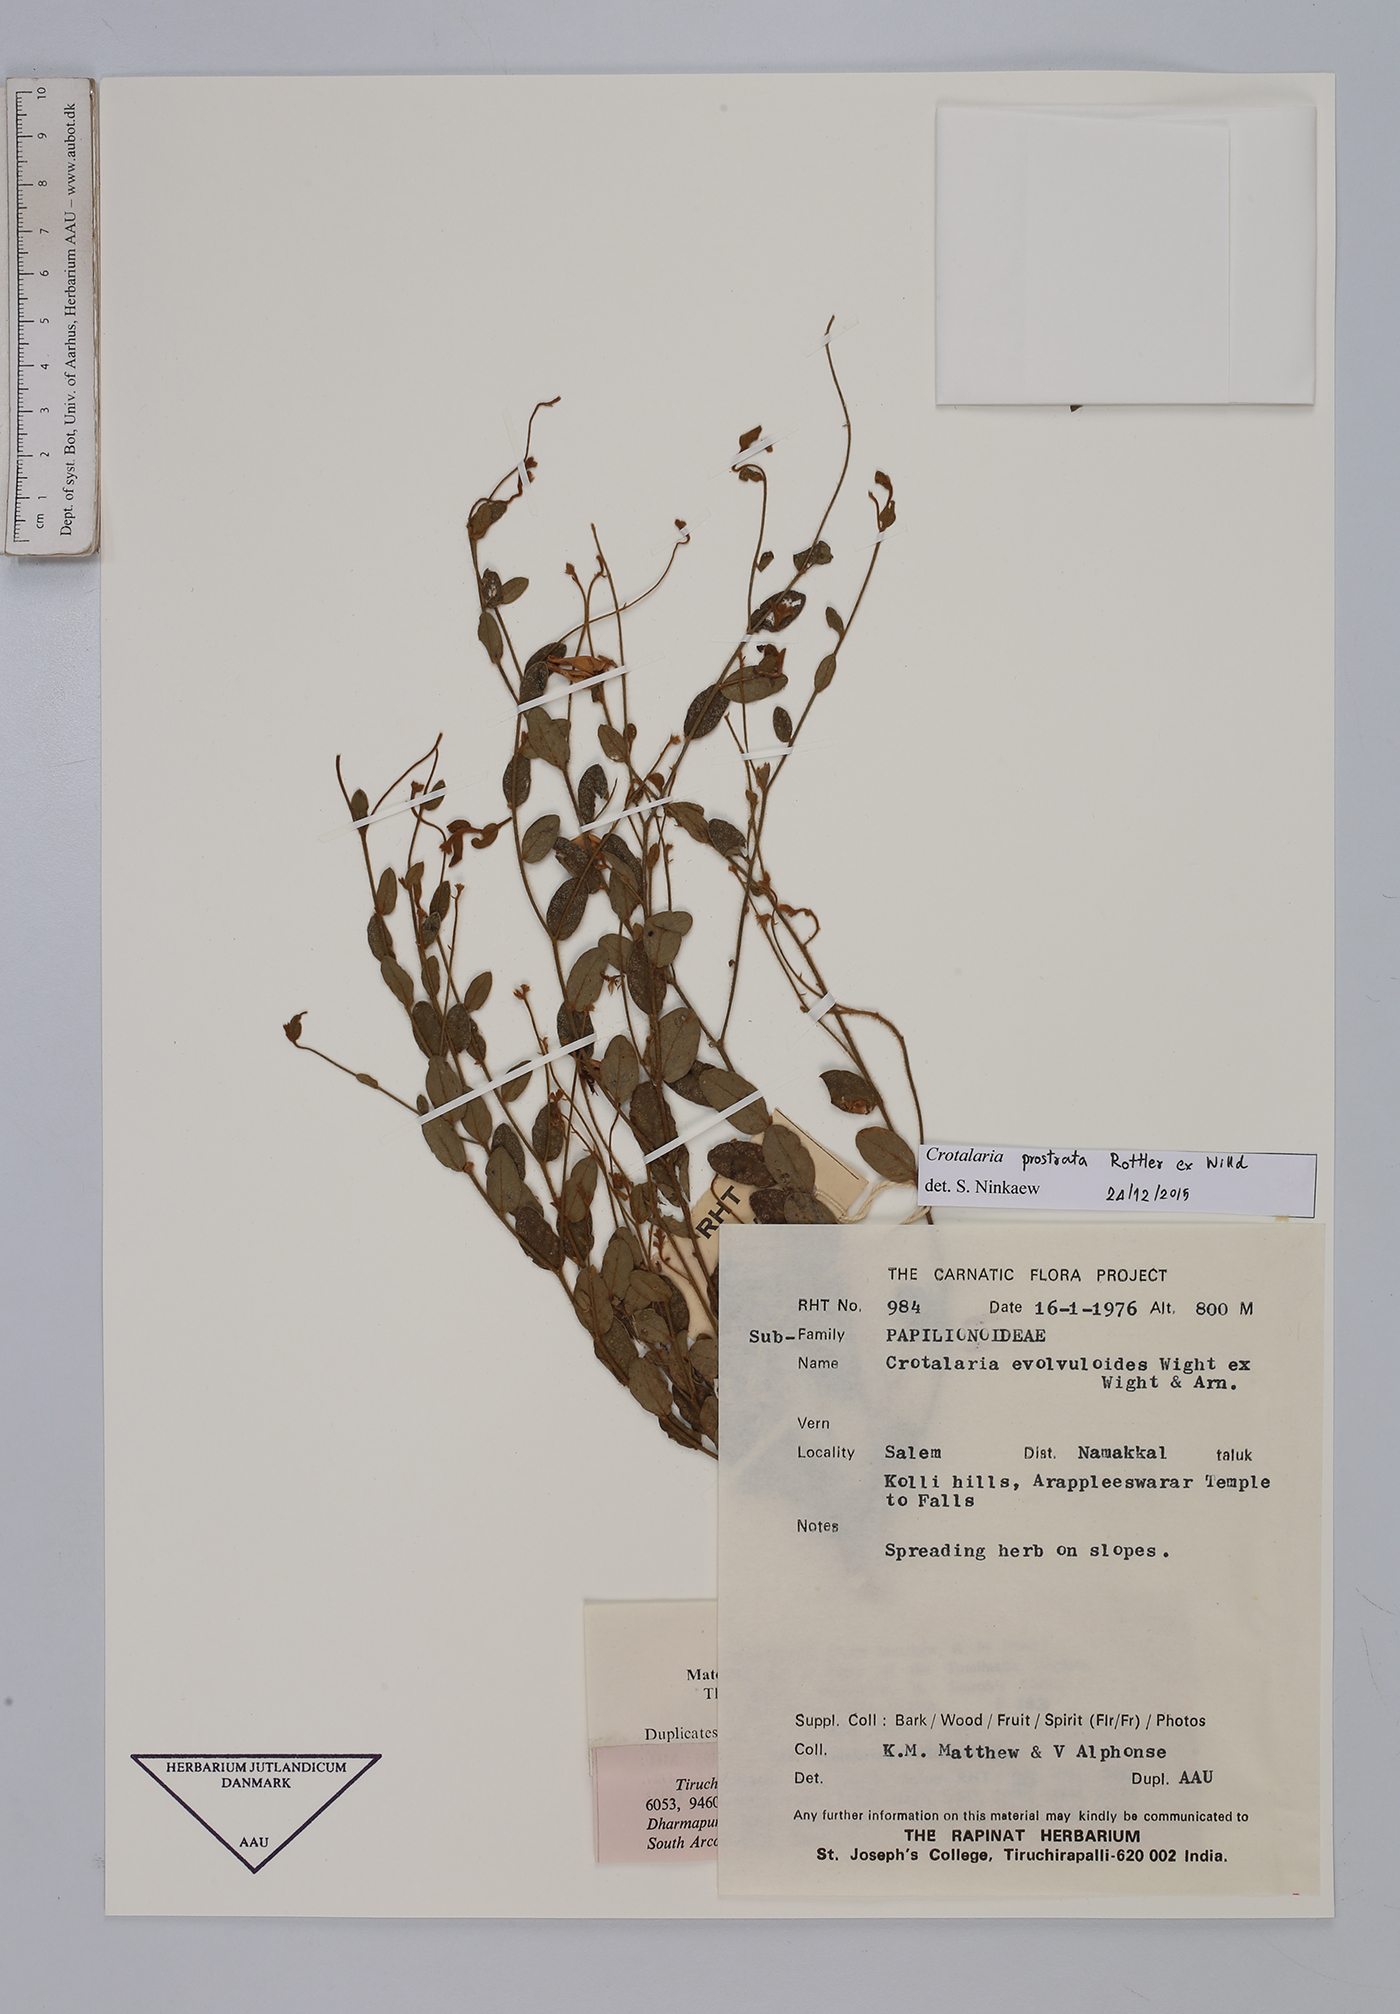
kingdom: Plantae
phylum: Tracheophyta
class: Magnoliopsida
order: Fabales
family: Fabaceae
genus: Crotalaria
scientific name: Crotalaria prostrata
